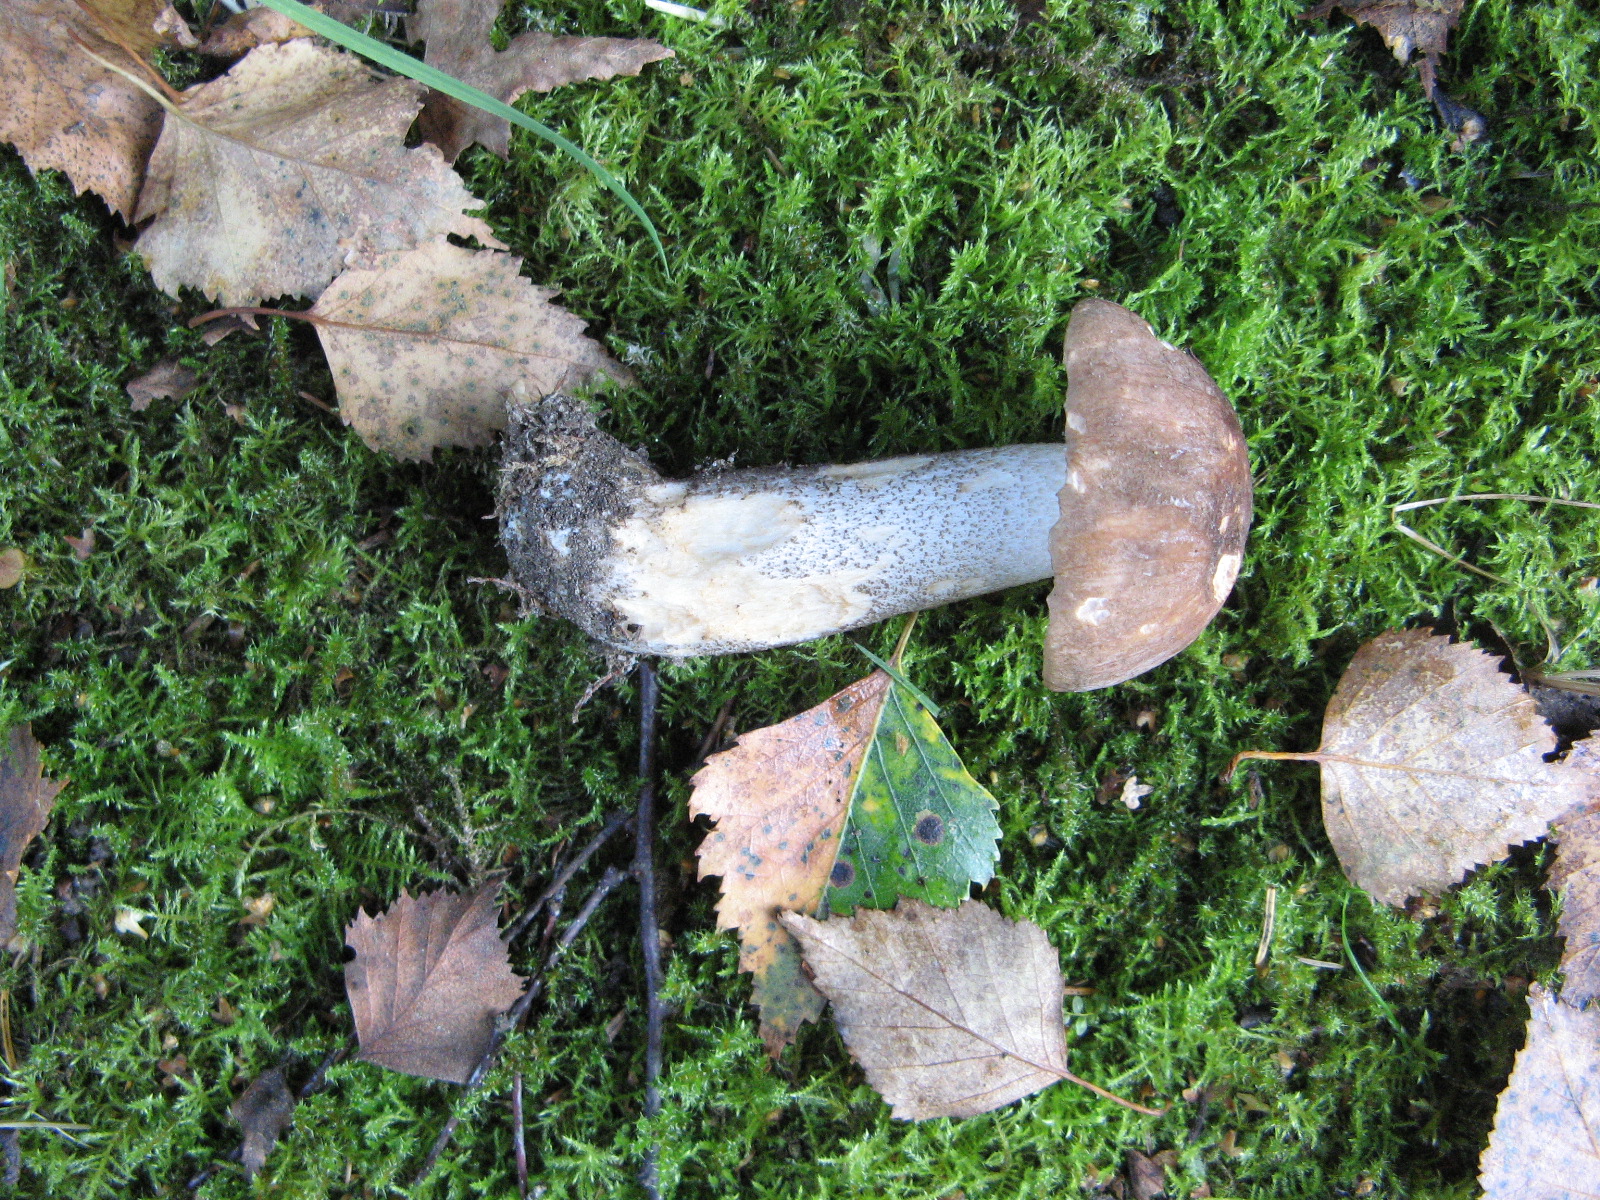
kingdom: Fungi
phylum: Basidiomycota
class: Agaricomycetes
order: Boletales
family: Boletaceae
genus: Leccinum
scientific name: Leccinum scabrum
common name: brun skælrørhat
